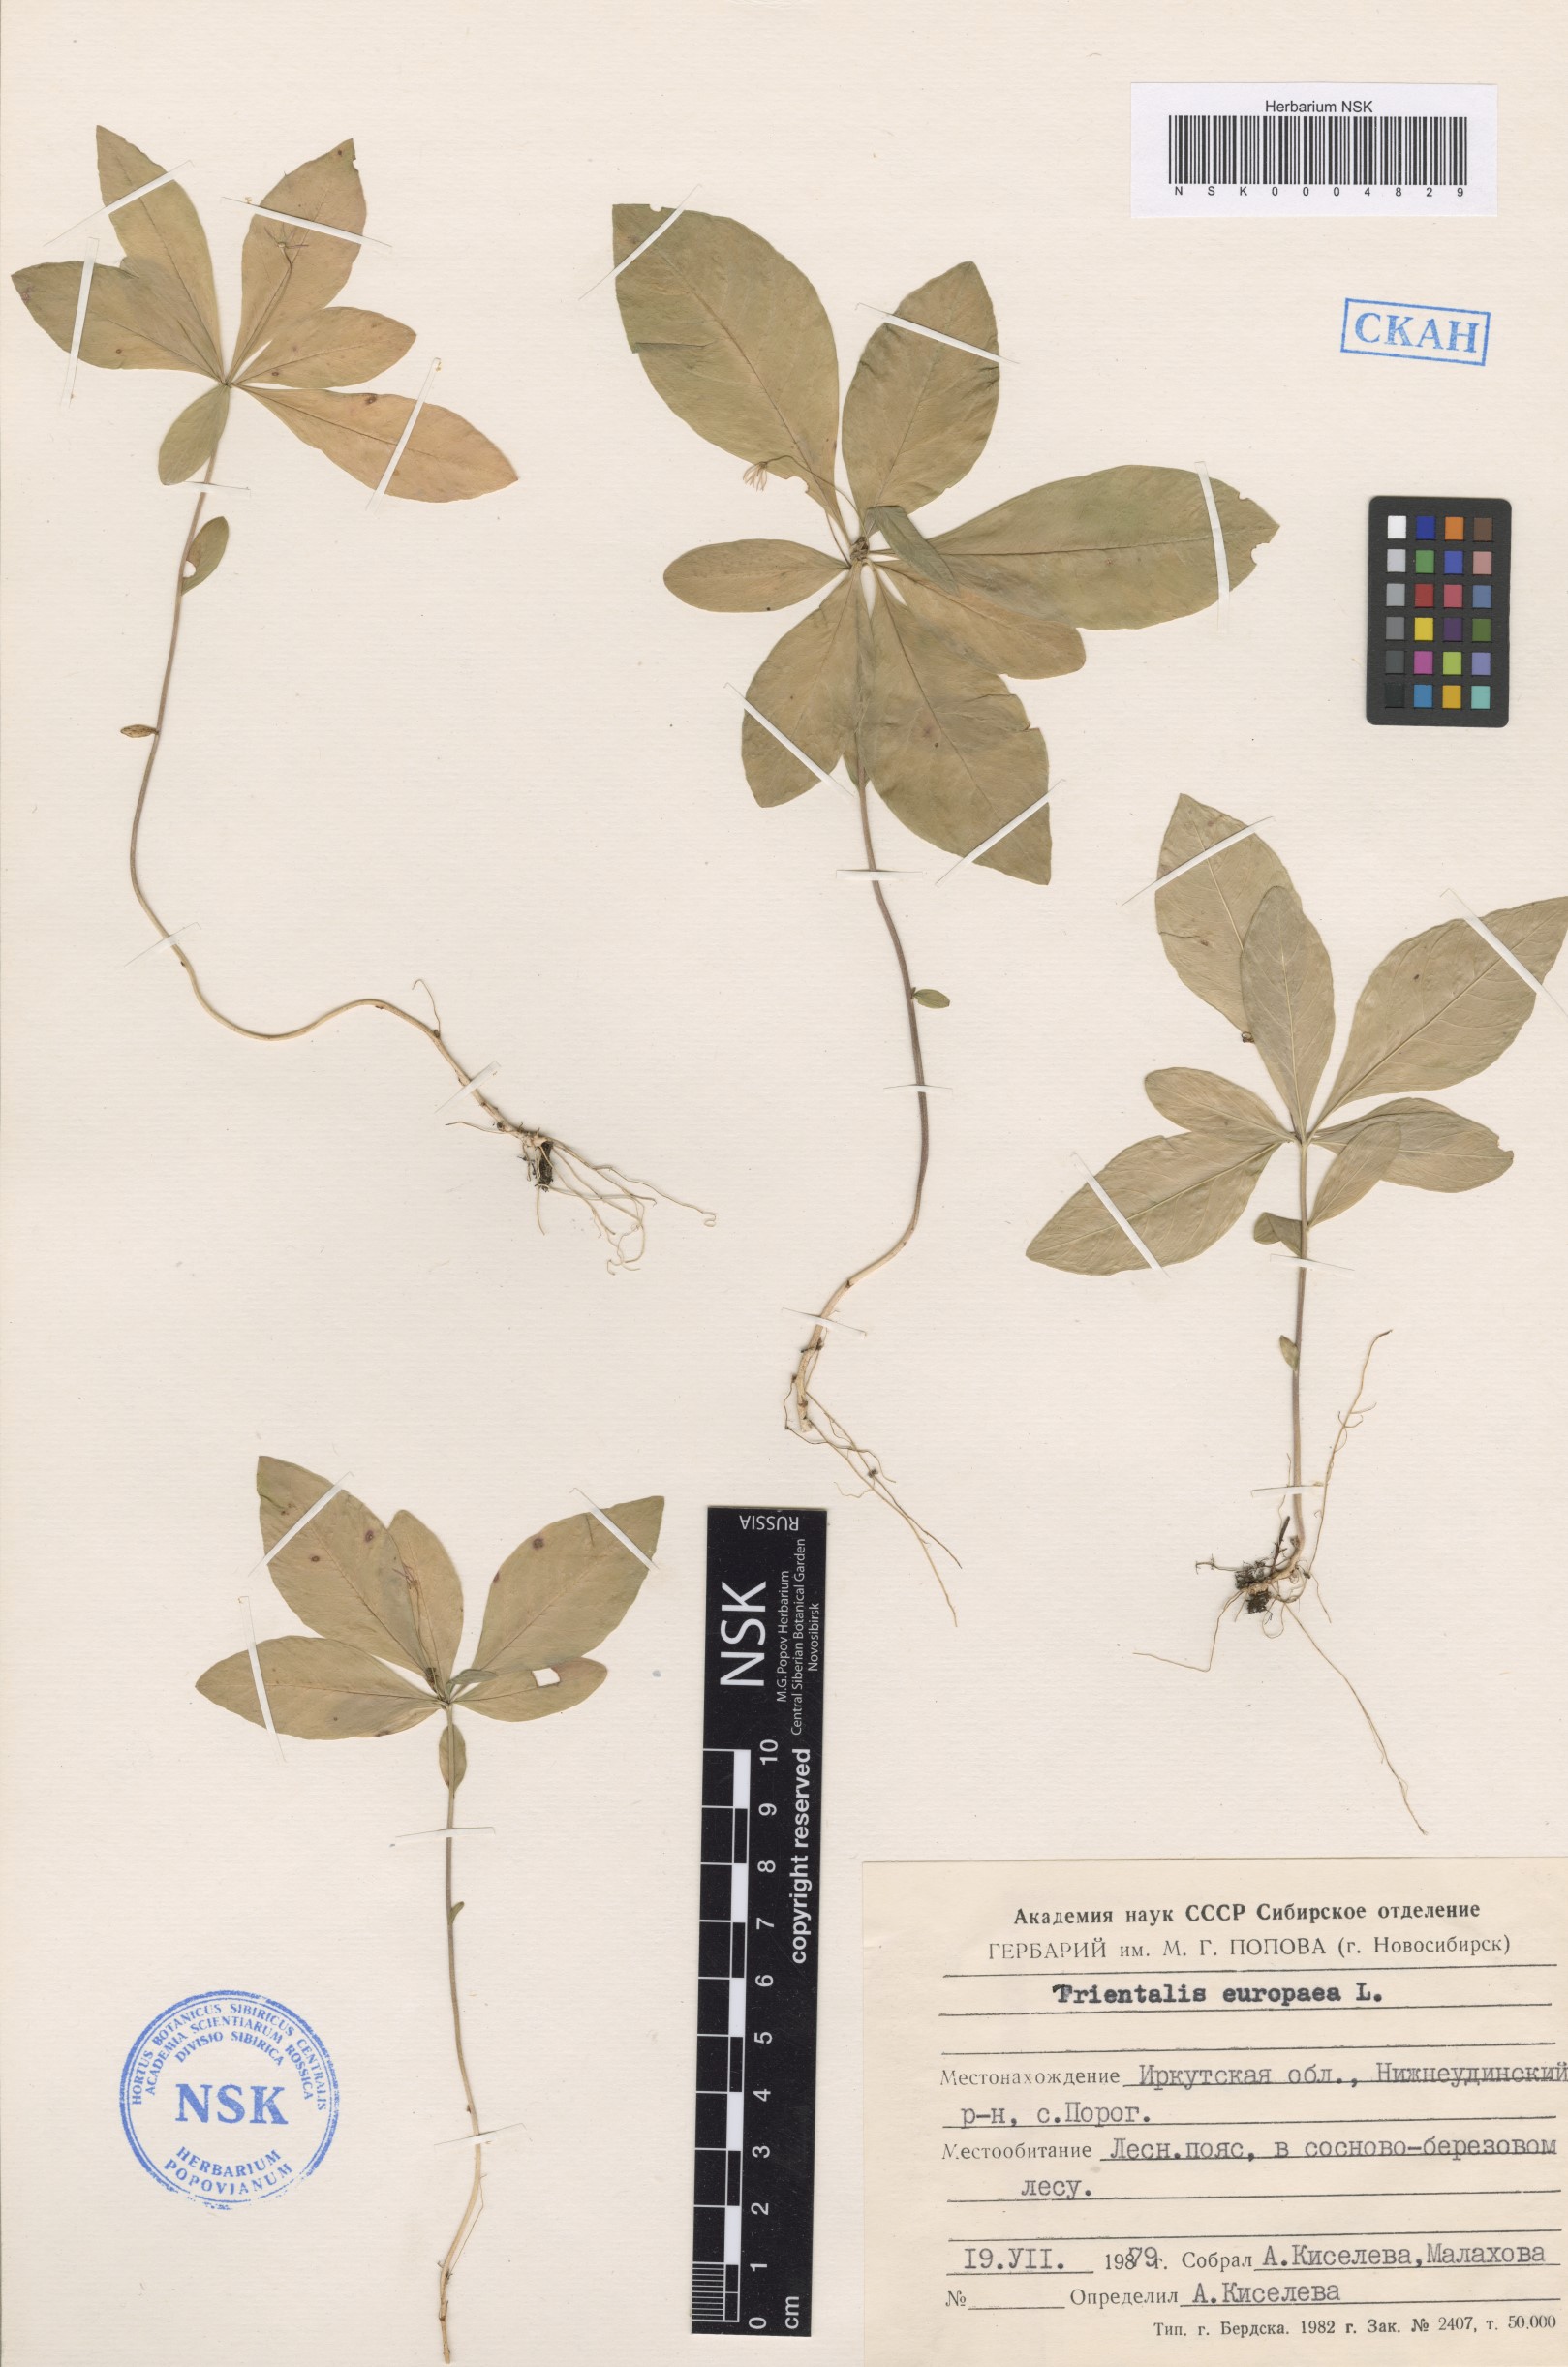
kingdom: Plantae
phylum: Tracheophyta
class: Magnoliopsida
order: Ericales
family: Primulaceae
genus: Lysimachia
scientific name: Lysimachia europaea
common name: Arctic starflower
